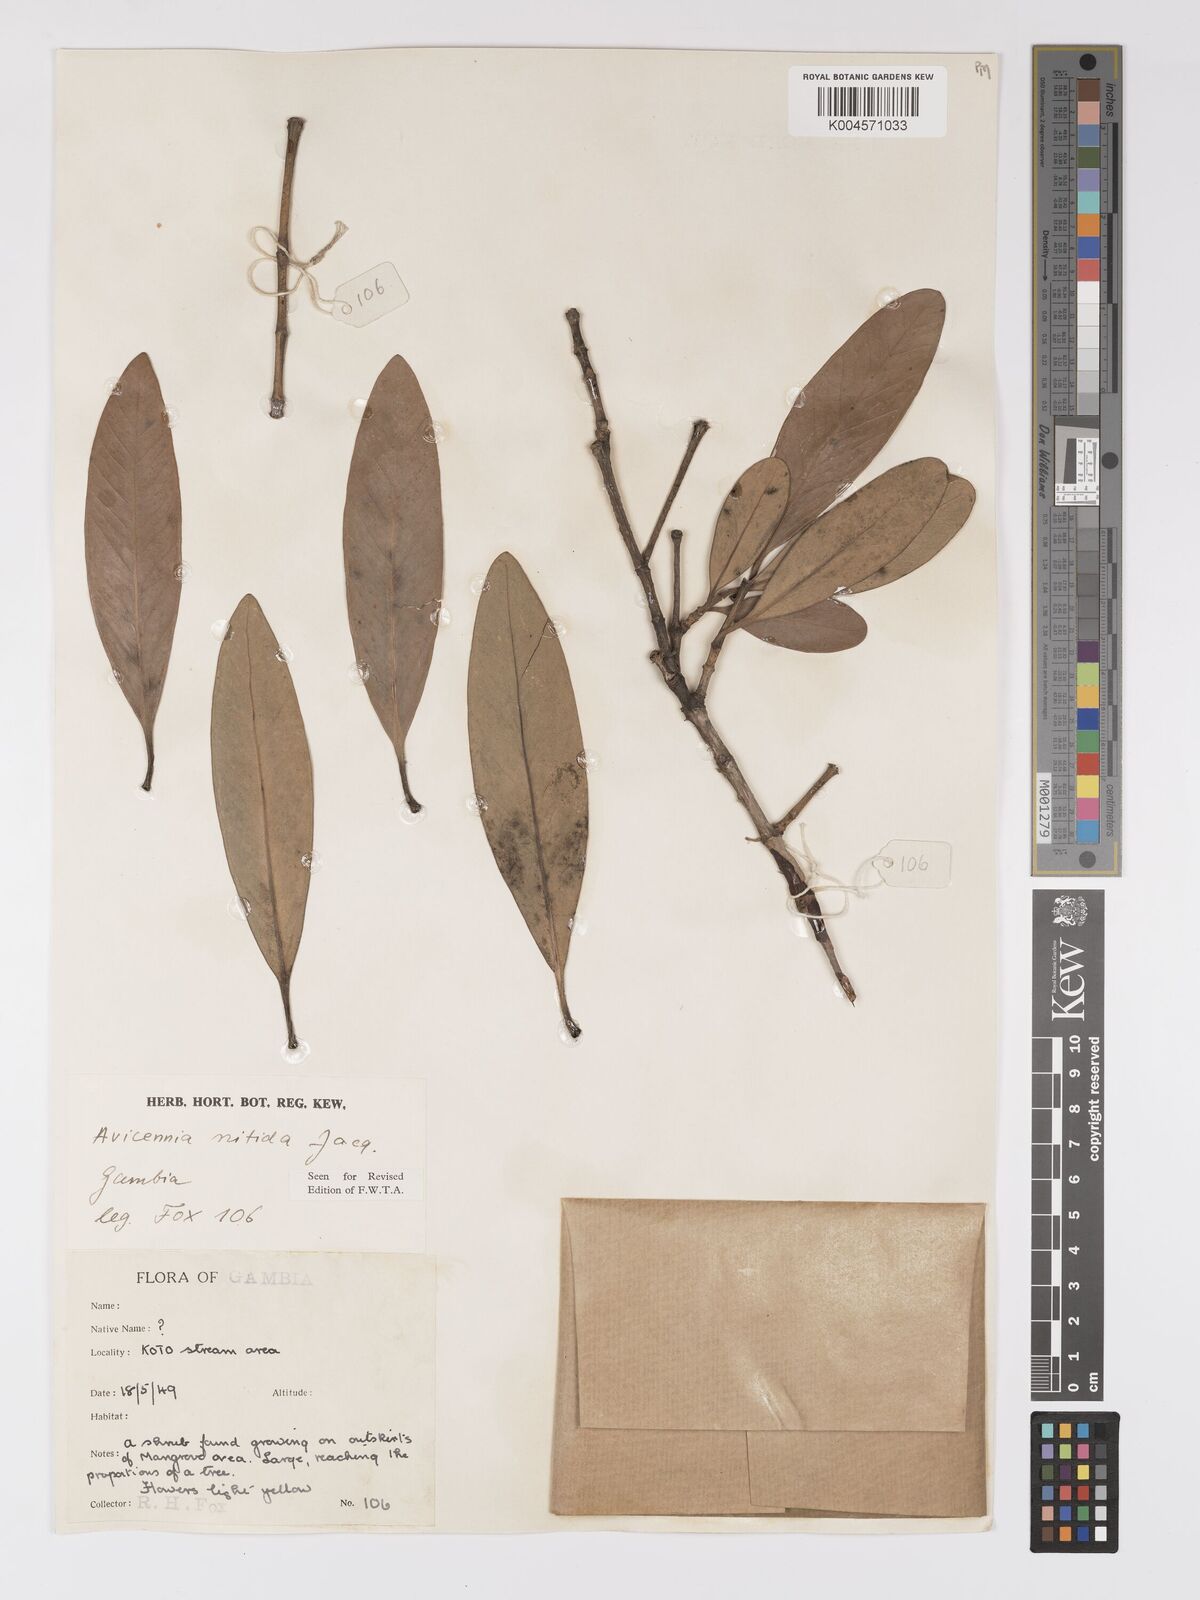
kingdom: Plantae
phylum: Tracheophyta
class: Magnoliopsida
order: Lamiales
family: Acanthaceae
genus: Avicennia
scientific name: Avicennia germinans
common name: Black mangrove
